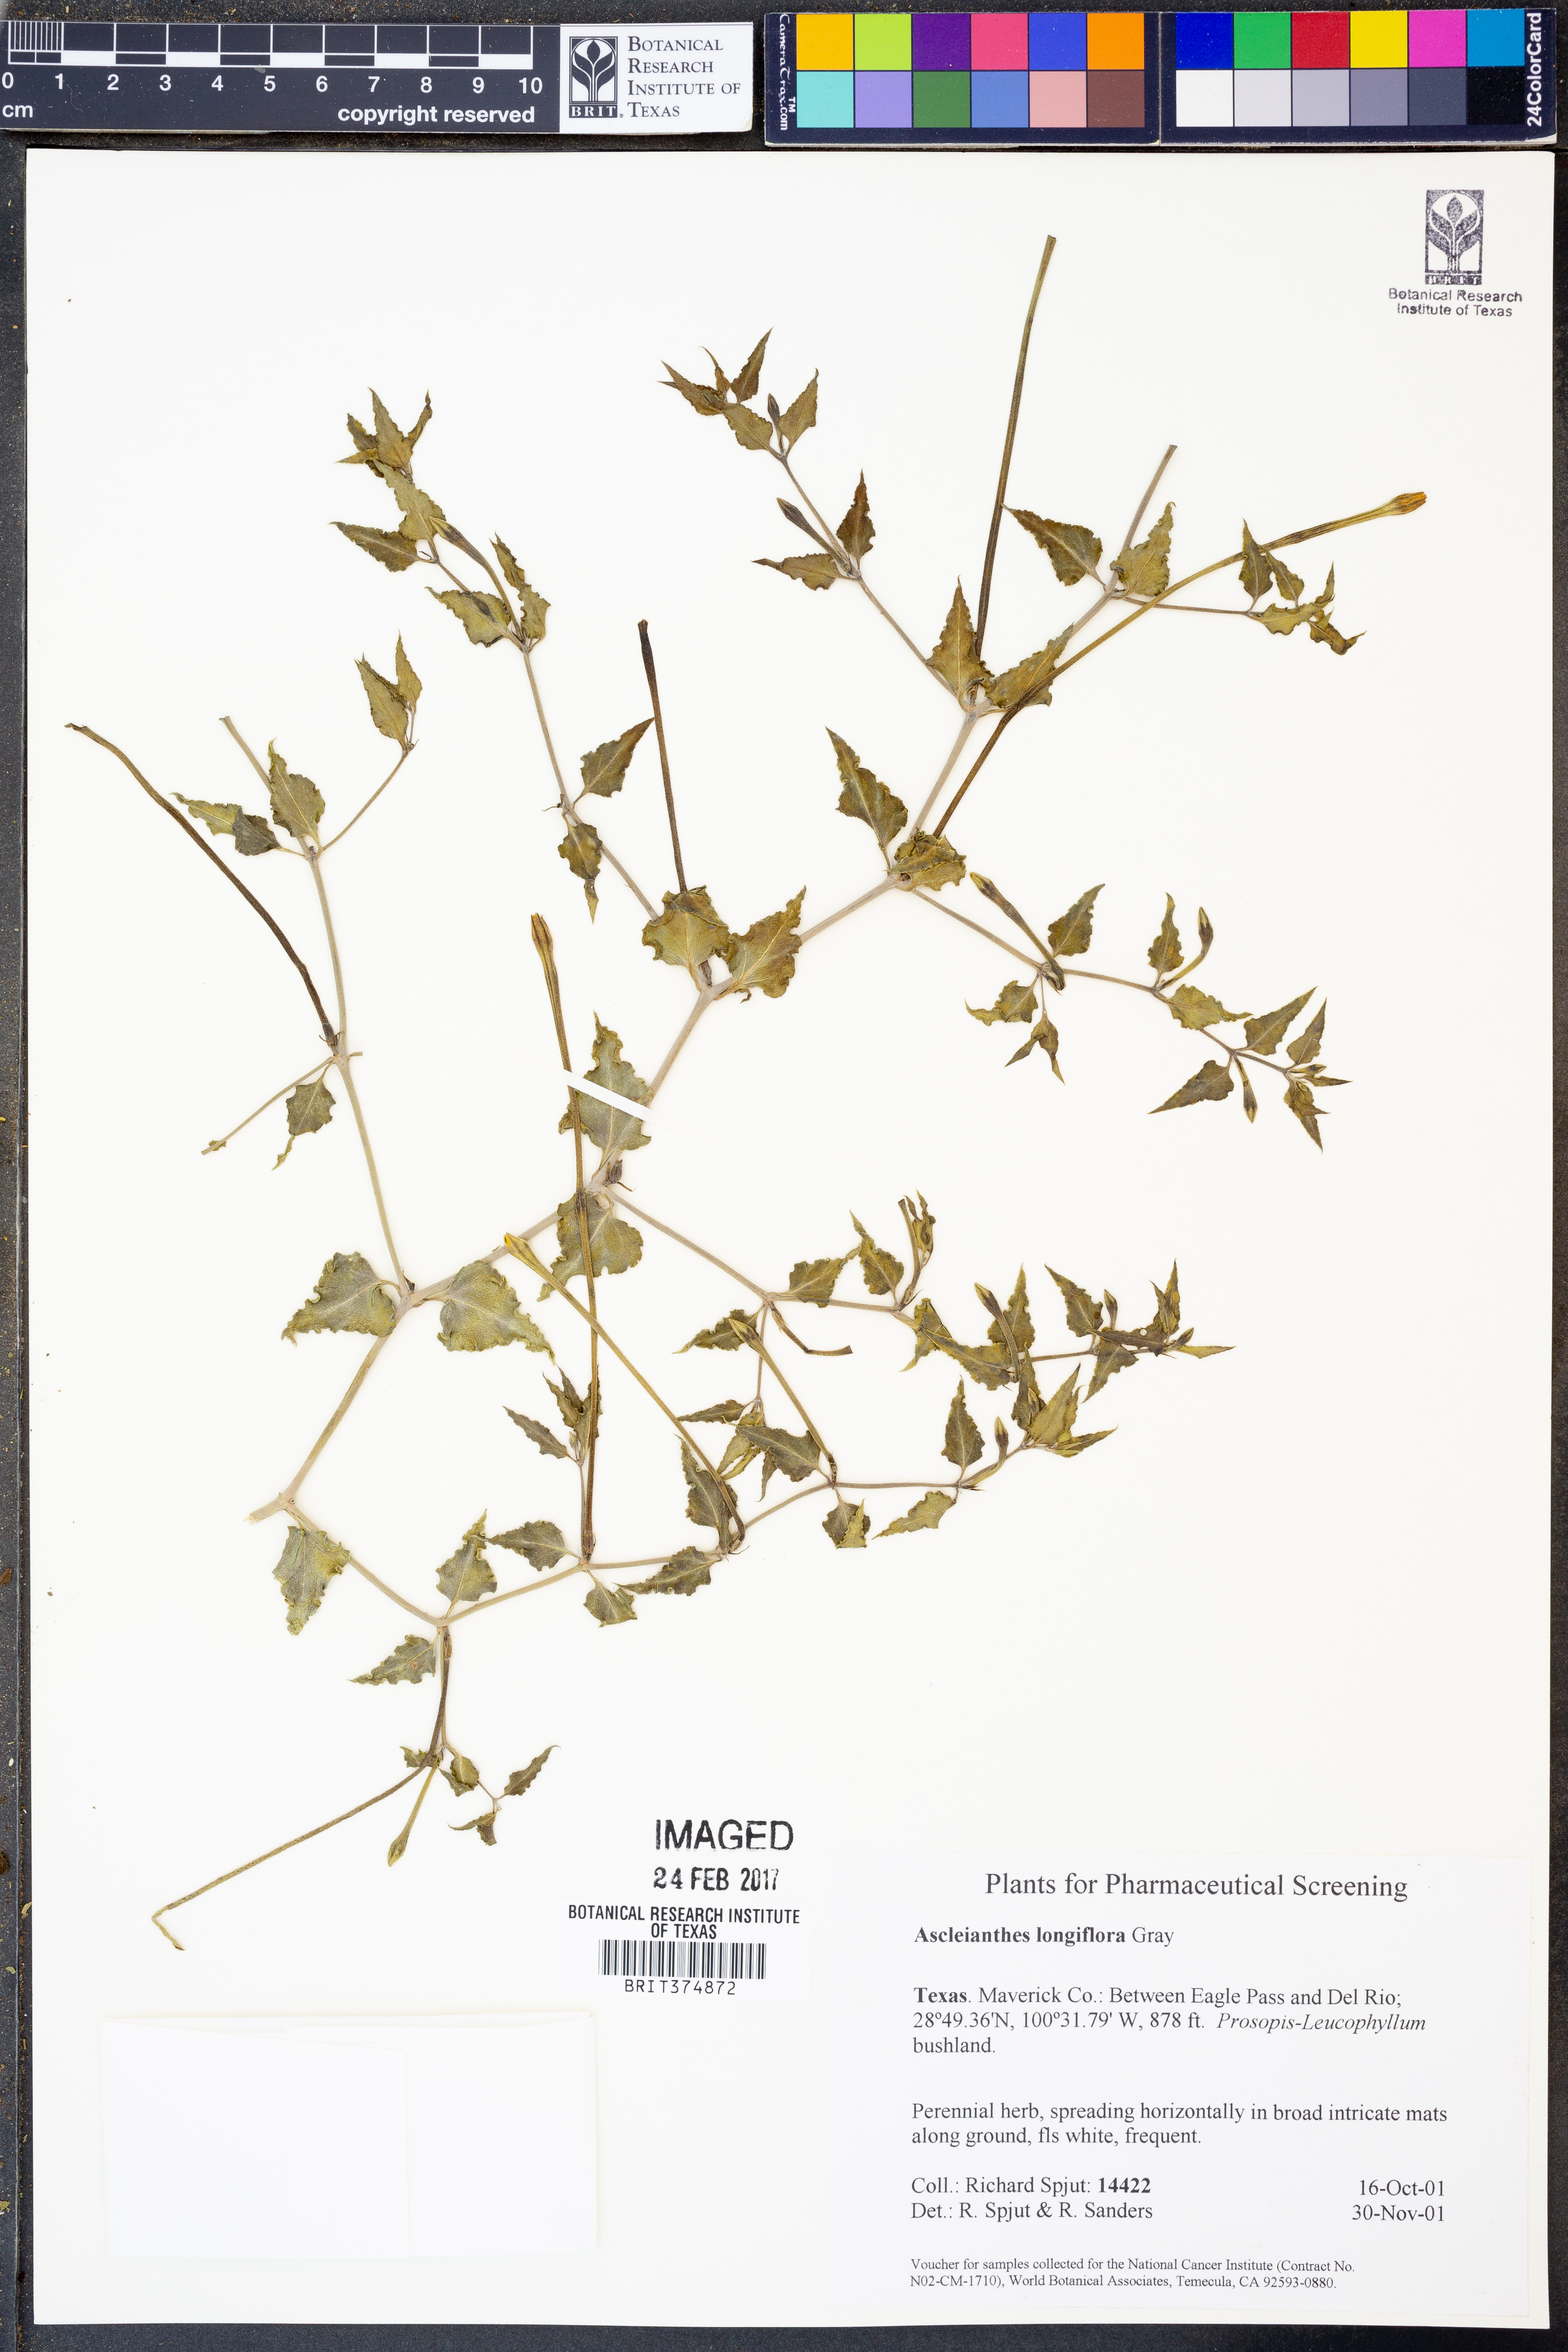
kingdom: Plantae
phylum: Tracheophyta
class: Magnoliopsida
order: Caryophyllales
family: Nyctaginaceae
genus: Acleisanthes
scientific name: Acleisanthes longiflora
